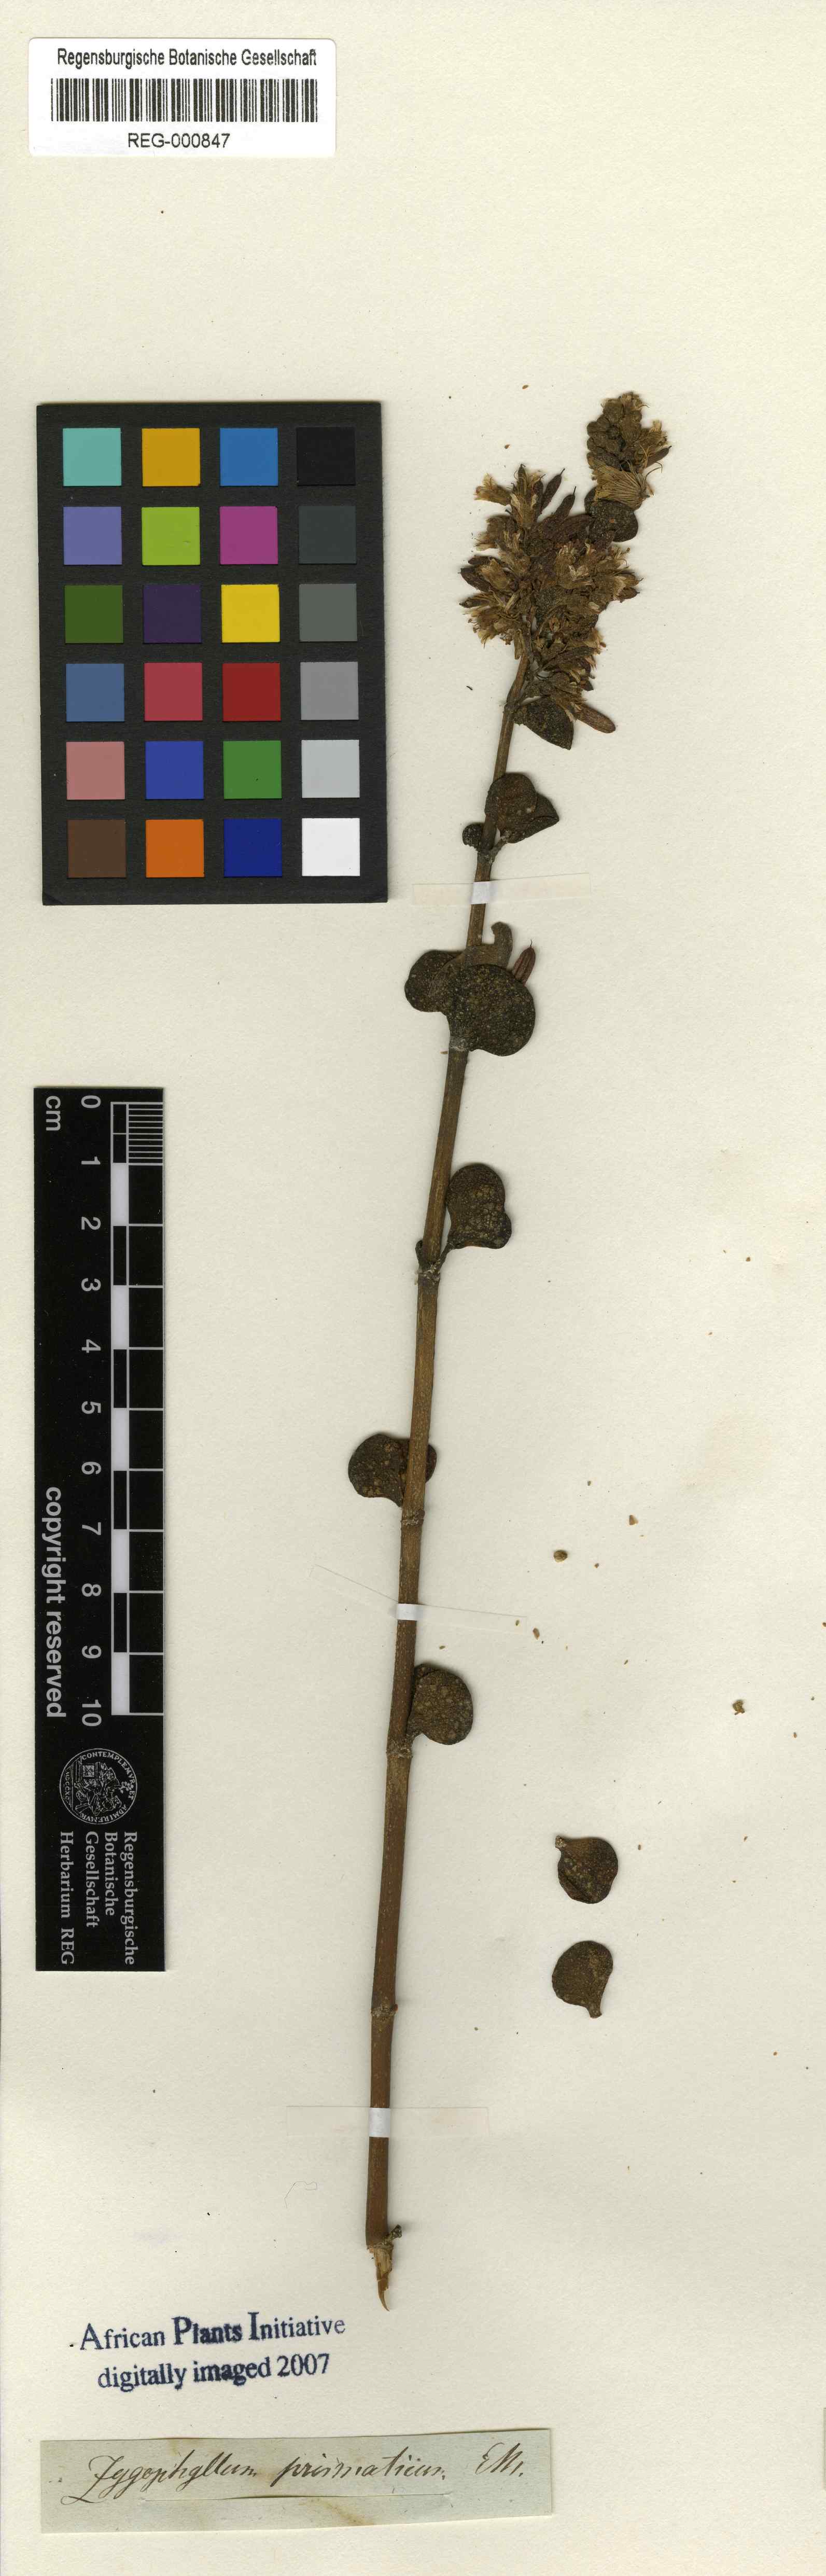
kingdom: Plantae
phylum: Tracheophyta
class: Magnoliopsida
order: Zygophyllales
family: Zygophyllaceae
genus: Tetraena
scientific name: Tetraena prismatocarpa
